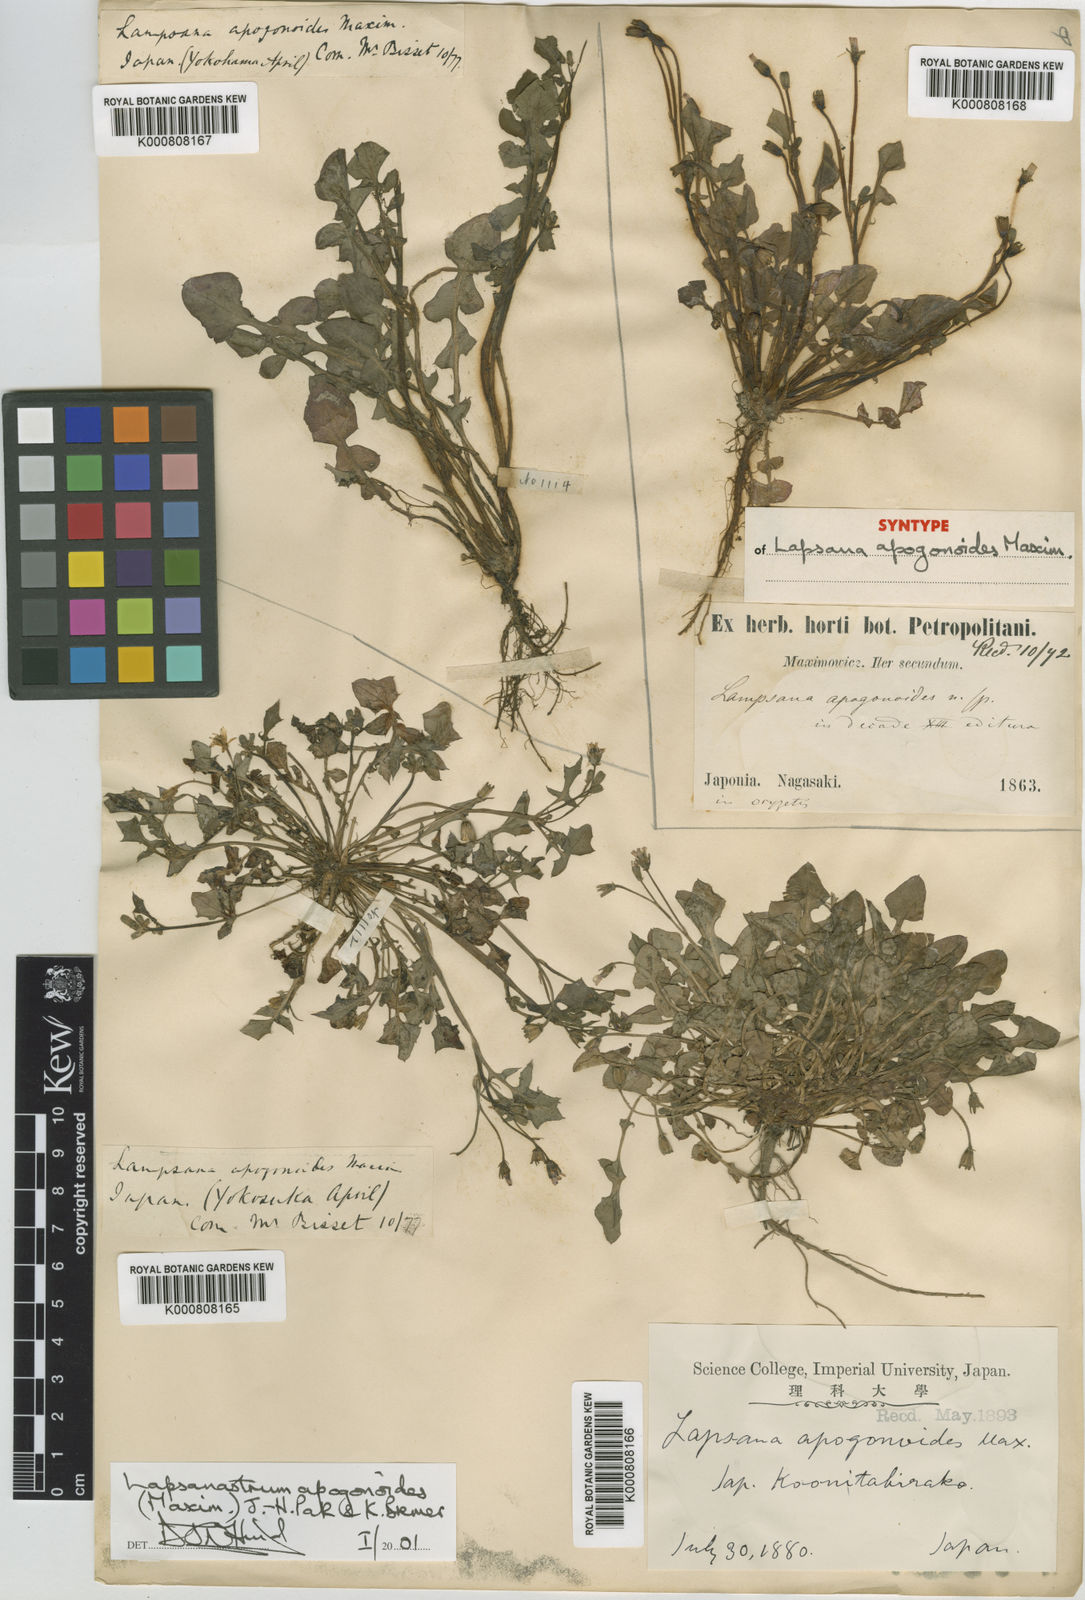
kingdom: Plantae
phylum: Tracheophyta
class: Magnoliopsida
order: Asterales
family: Asteraceae
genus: Lapsanastrum
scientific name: Lapsanastrum apogonoides
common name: Japanese nipplewort
